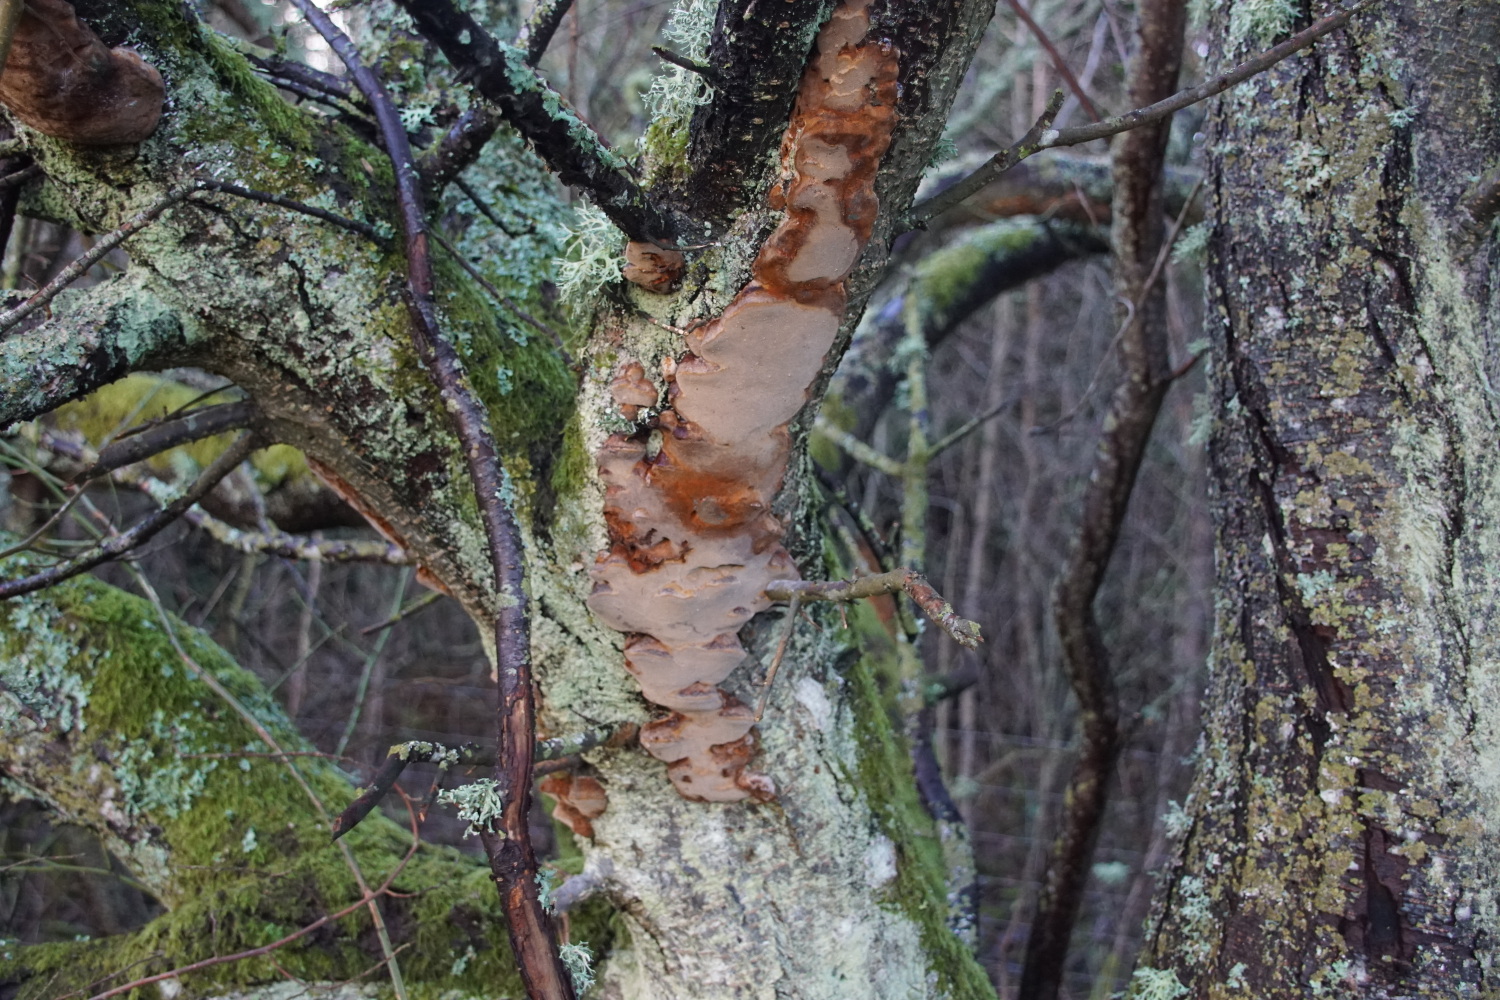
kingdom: Fungi
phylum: Basidiomycota
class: Agaricomycetes
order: Hymenochaetales
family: Hymenochaetaceae
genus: Phellinus
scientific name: Phellinus pomaceus
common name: blomme-ildporesvamp
